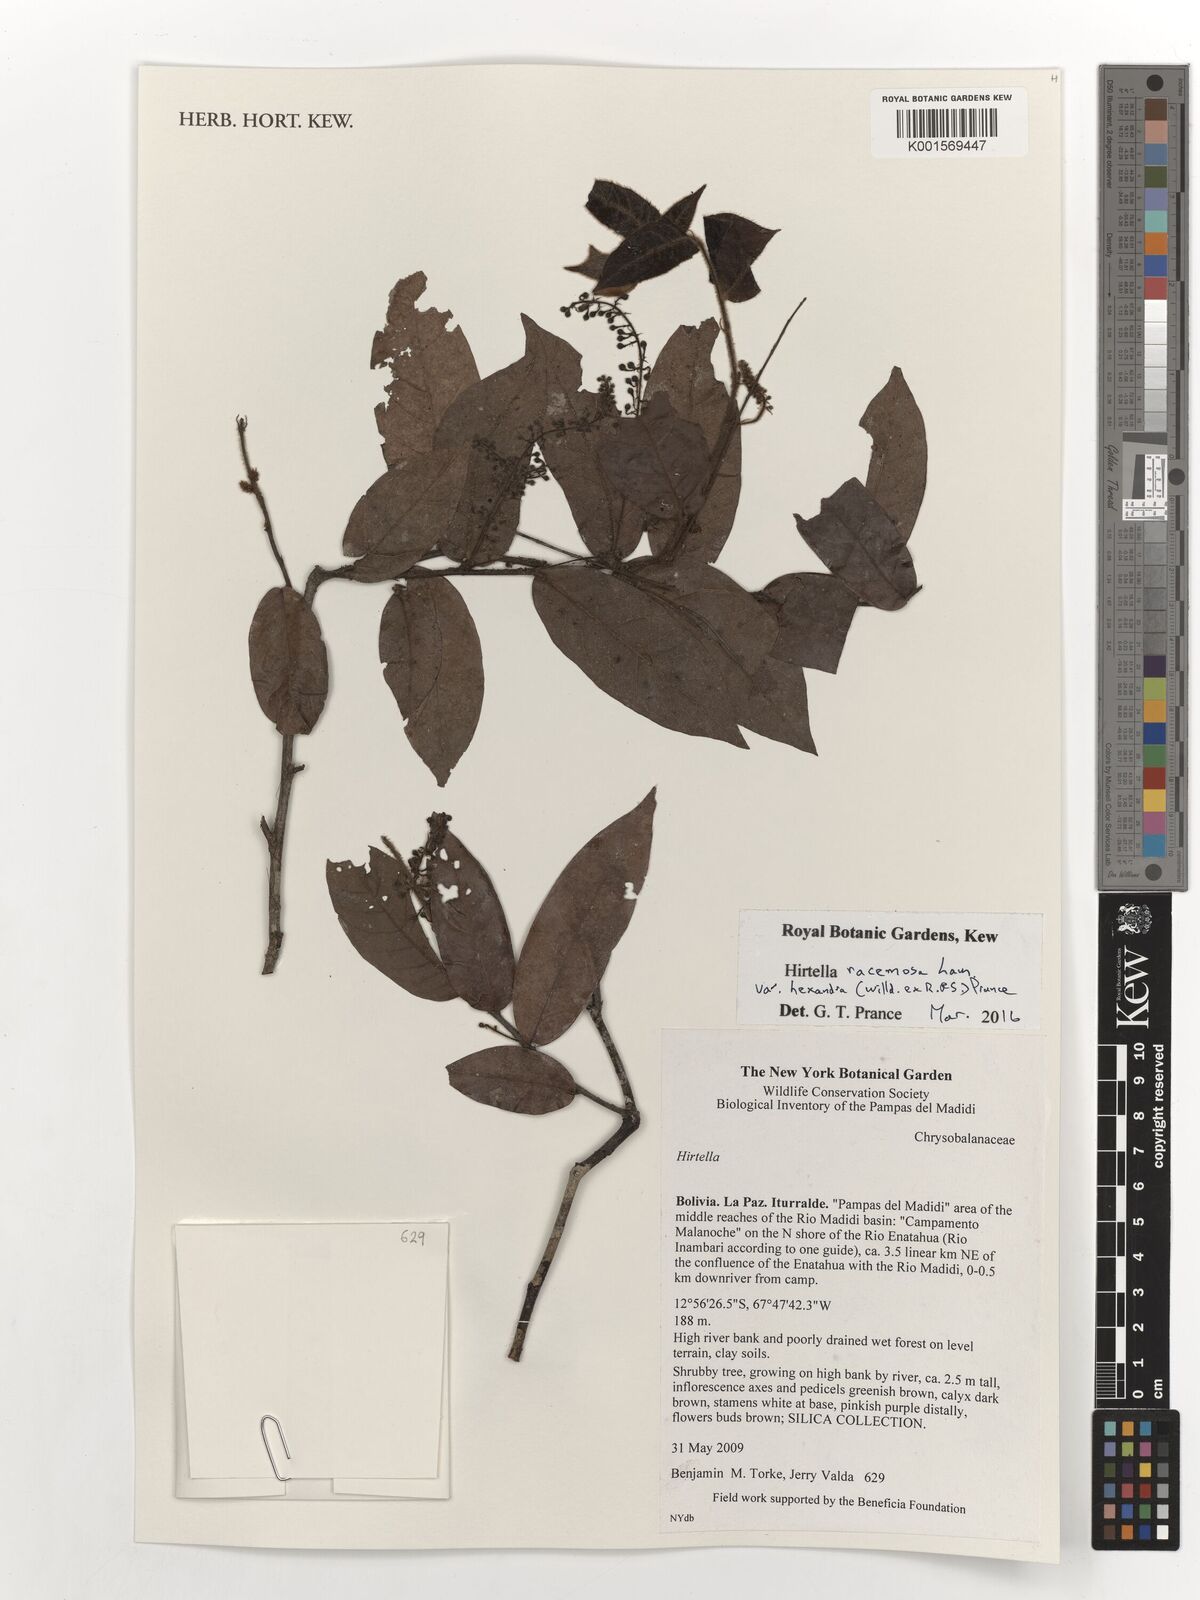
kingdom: Plantae
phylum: Tracheophyta
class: Magnoliopsida
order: Malpighiales
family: Chrysobalanaceae
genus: Hirtella
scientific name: Hirtella racemosa
